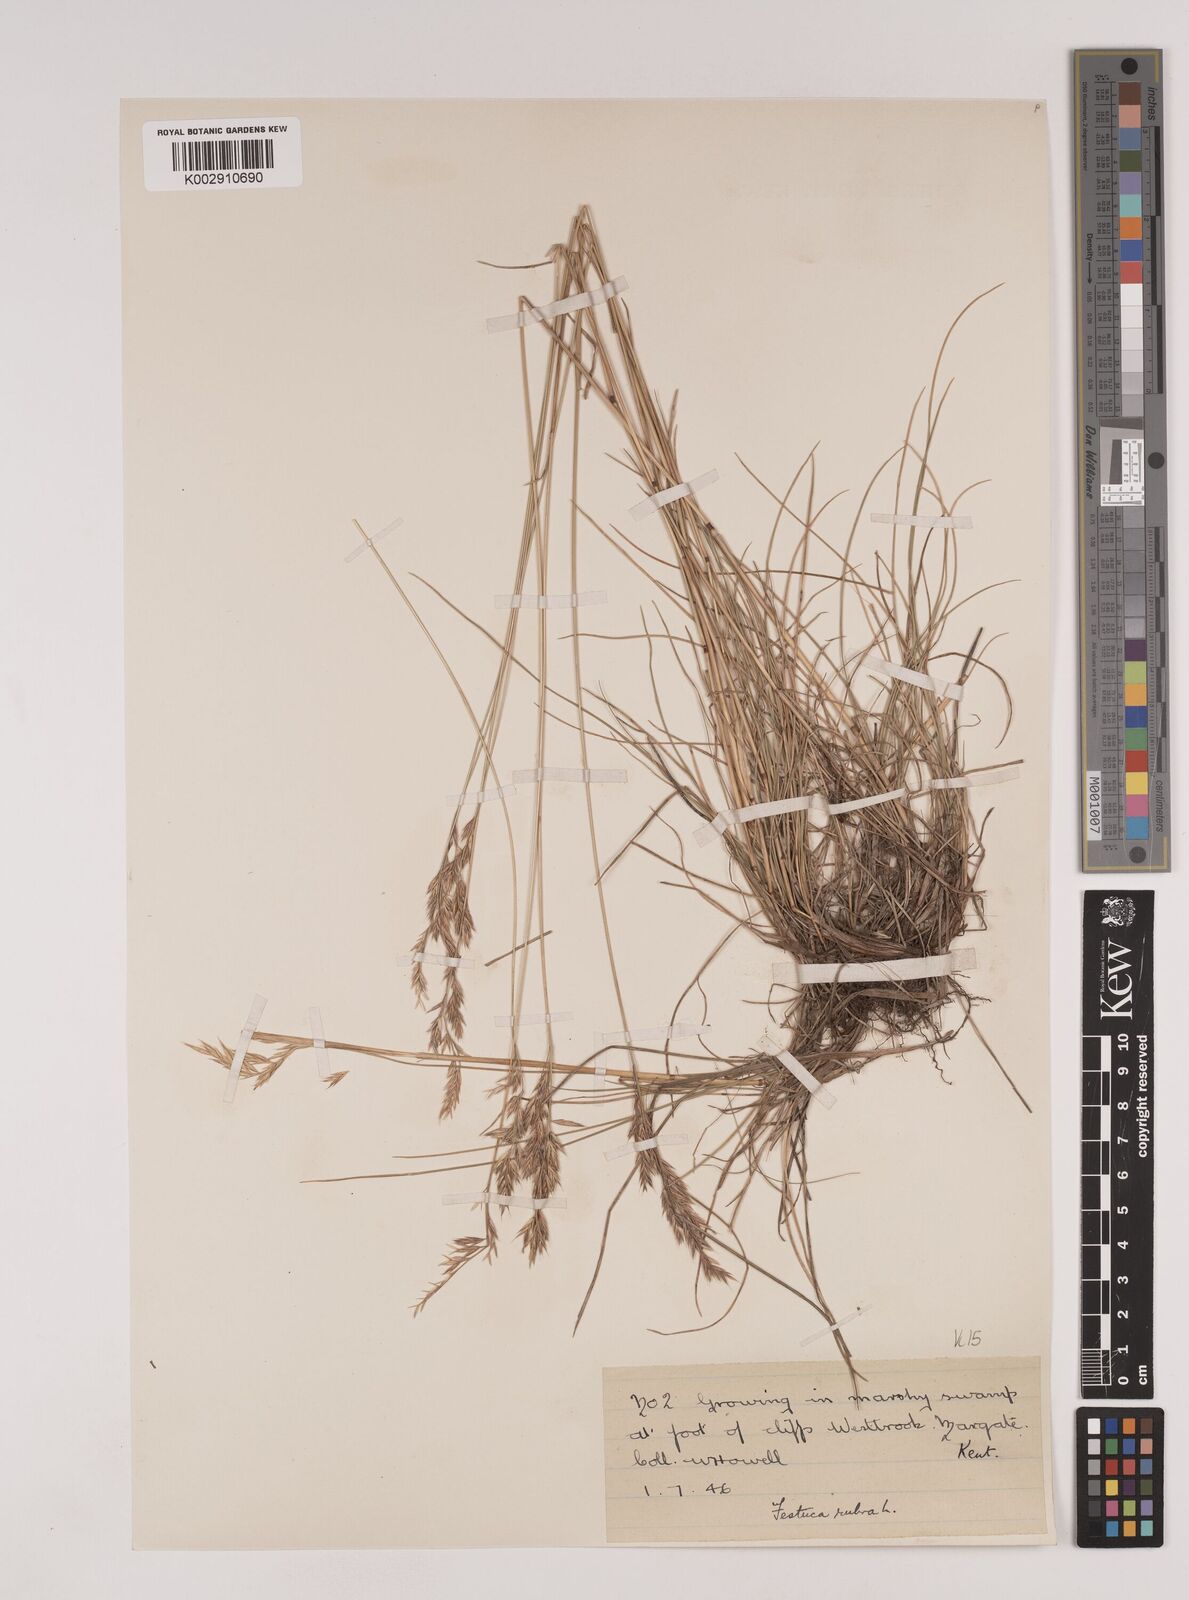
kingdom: Plantae
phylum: Tracheophyta
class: Liliopsida
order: Poales
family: Poaceae
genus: Festuca
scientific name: Festuca rubra
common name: Red fescue
